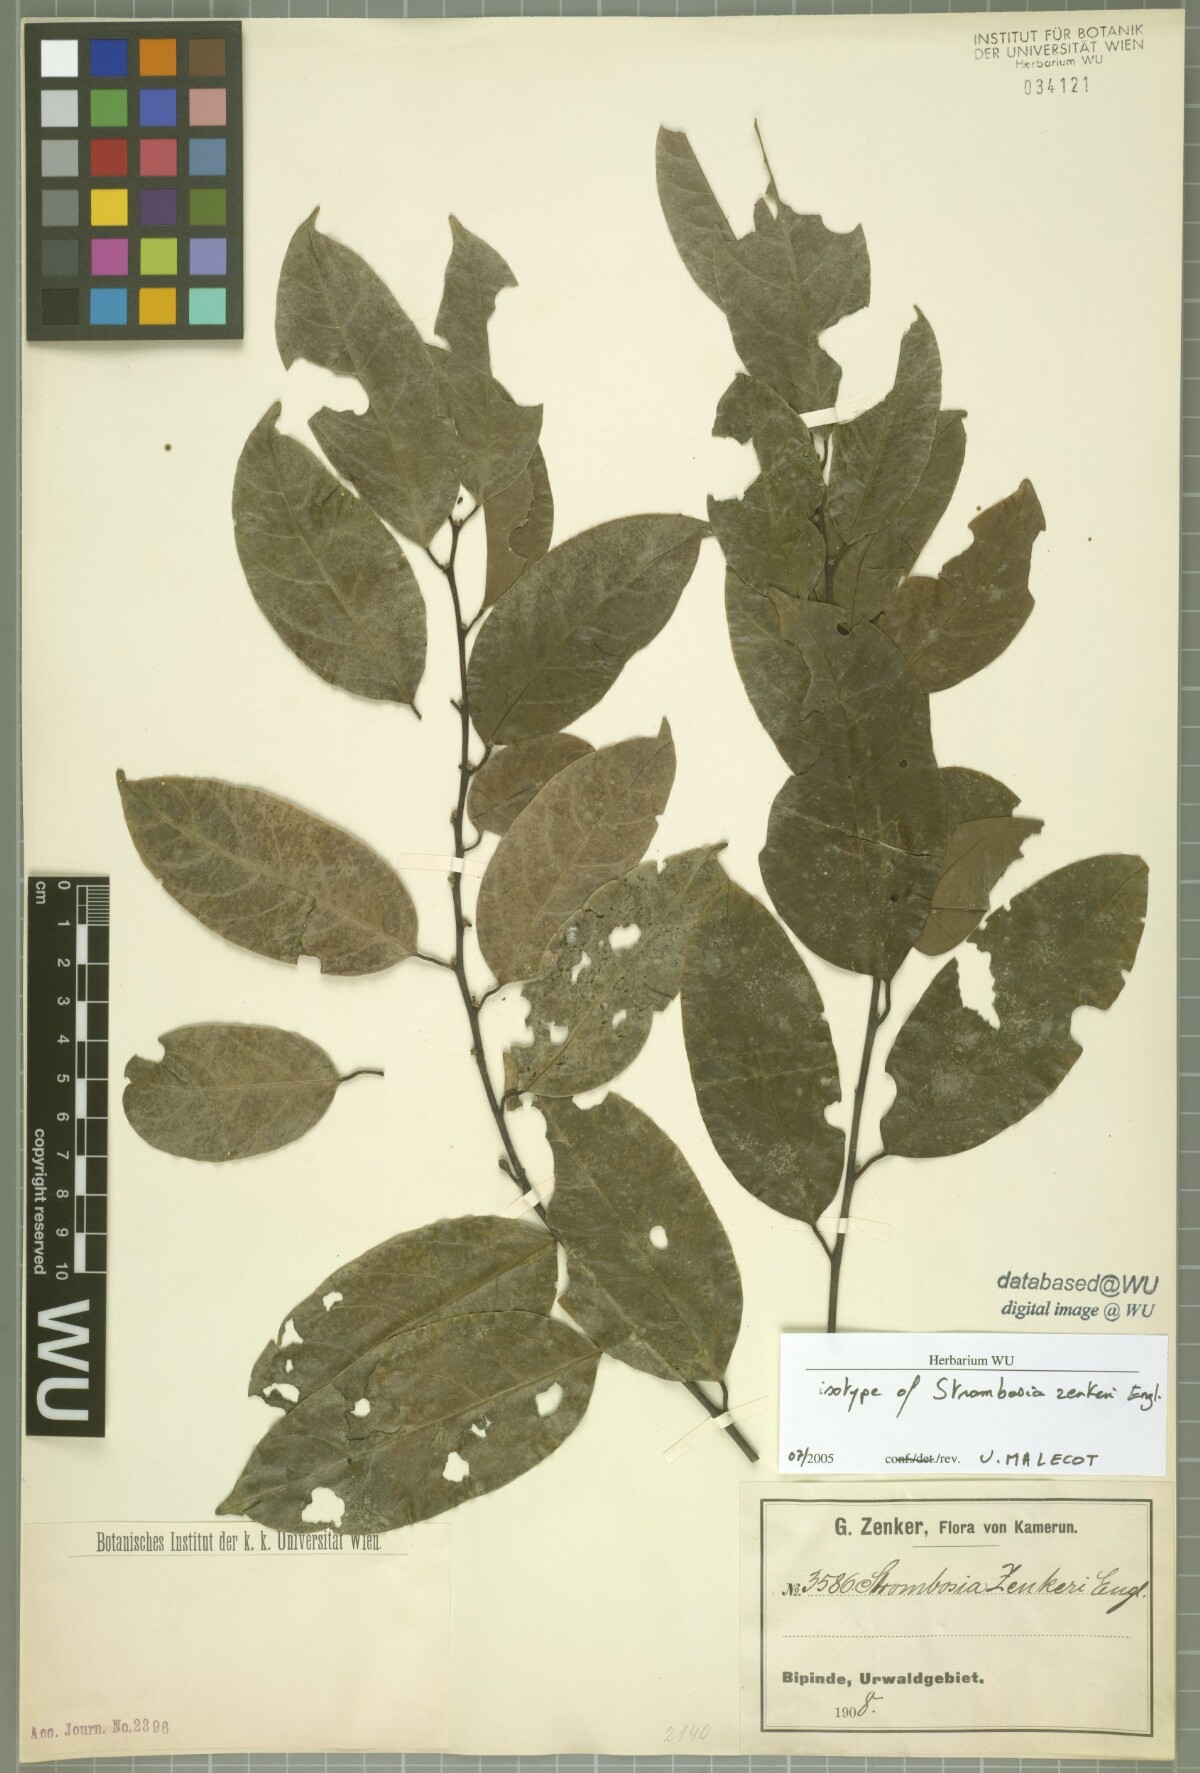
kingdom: Plantae
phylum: Tracheophyta
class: Magnoliopsida
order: Santalales
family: Strombosiaceae
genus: Strombosia
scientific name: Strombosia zenkeri
